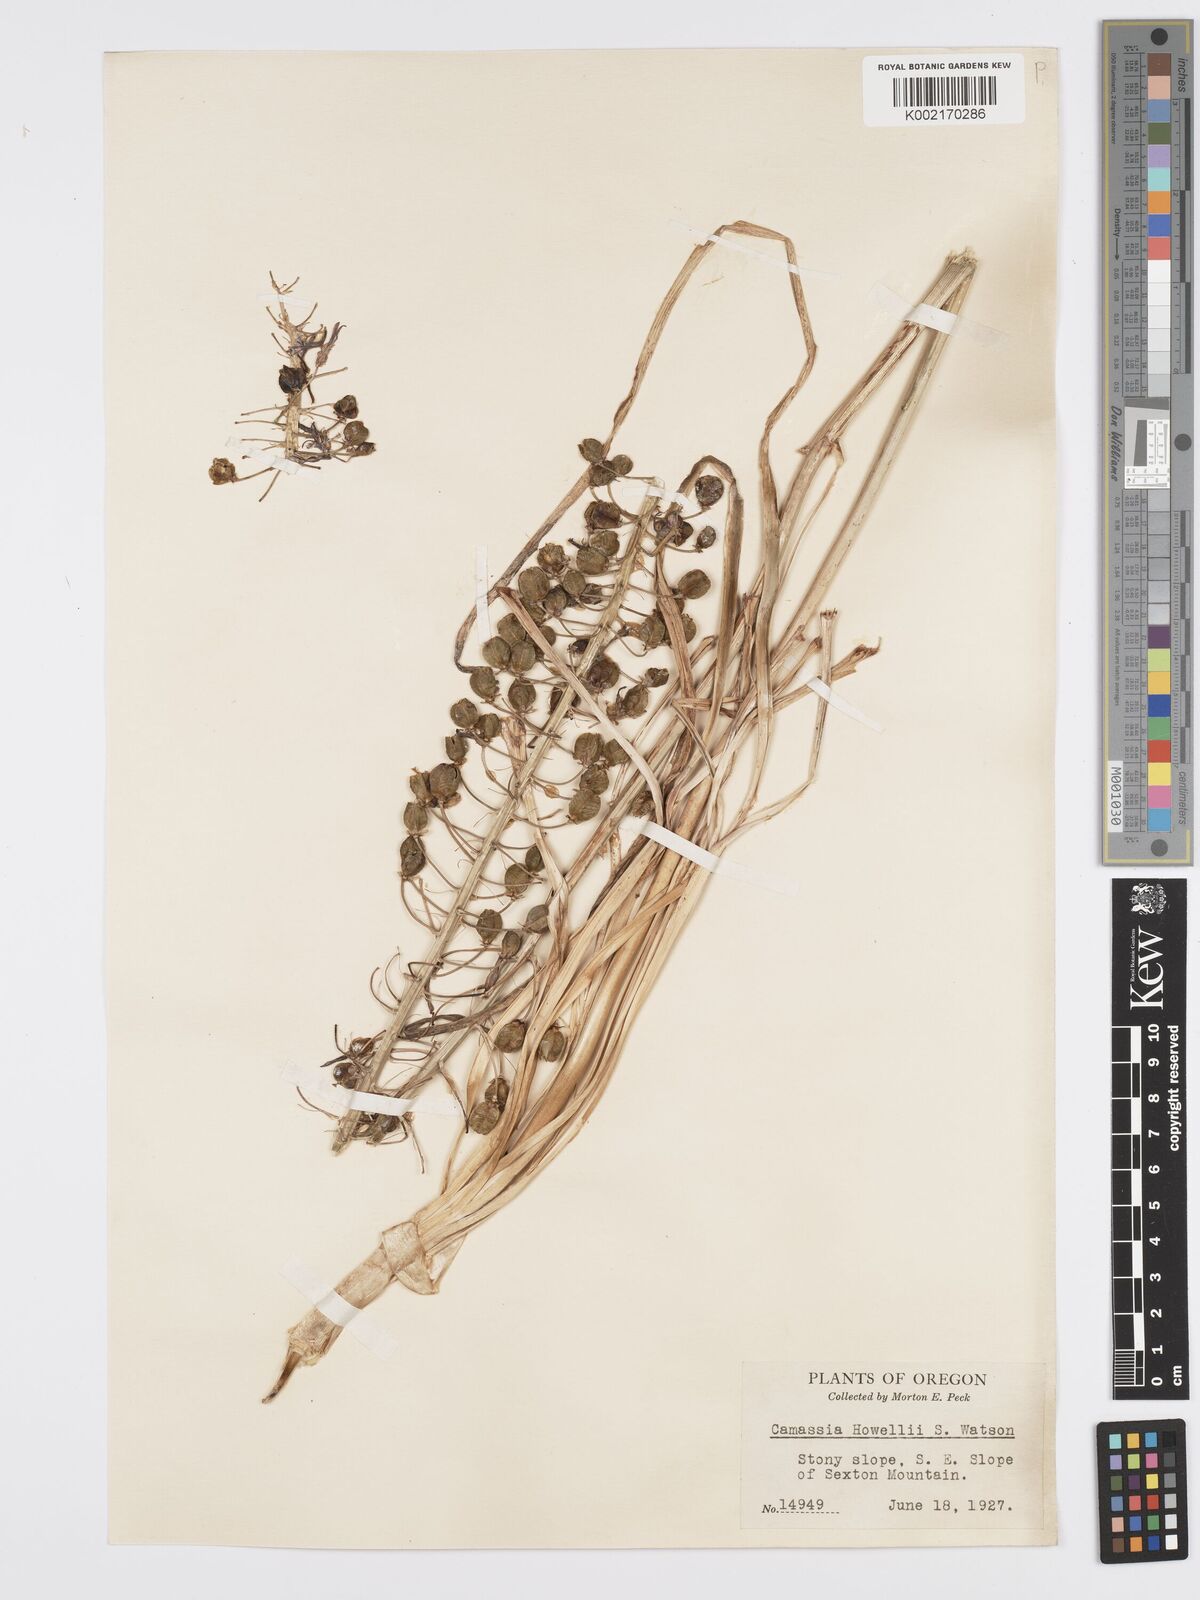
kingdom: Plantae
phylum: Tracheophyta
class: Liliopsida
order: Asparagales
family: Asparagaceae
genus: Camassia
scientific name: Camassia howellii
